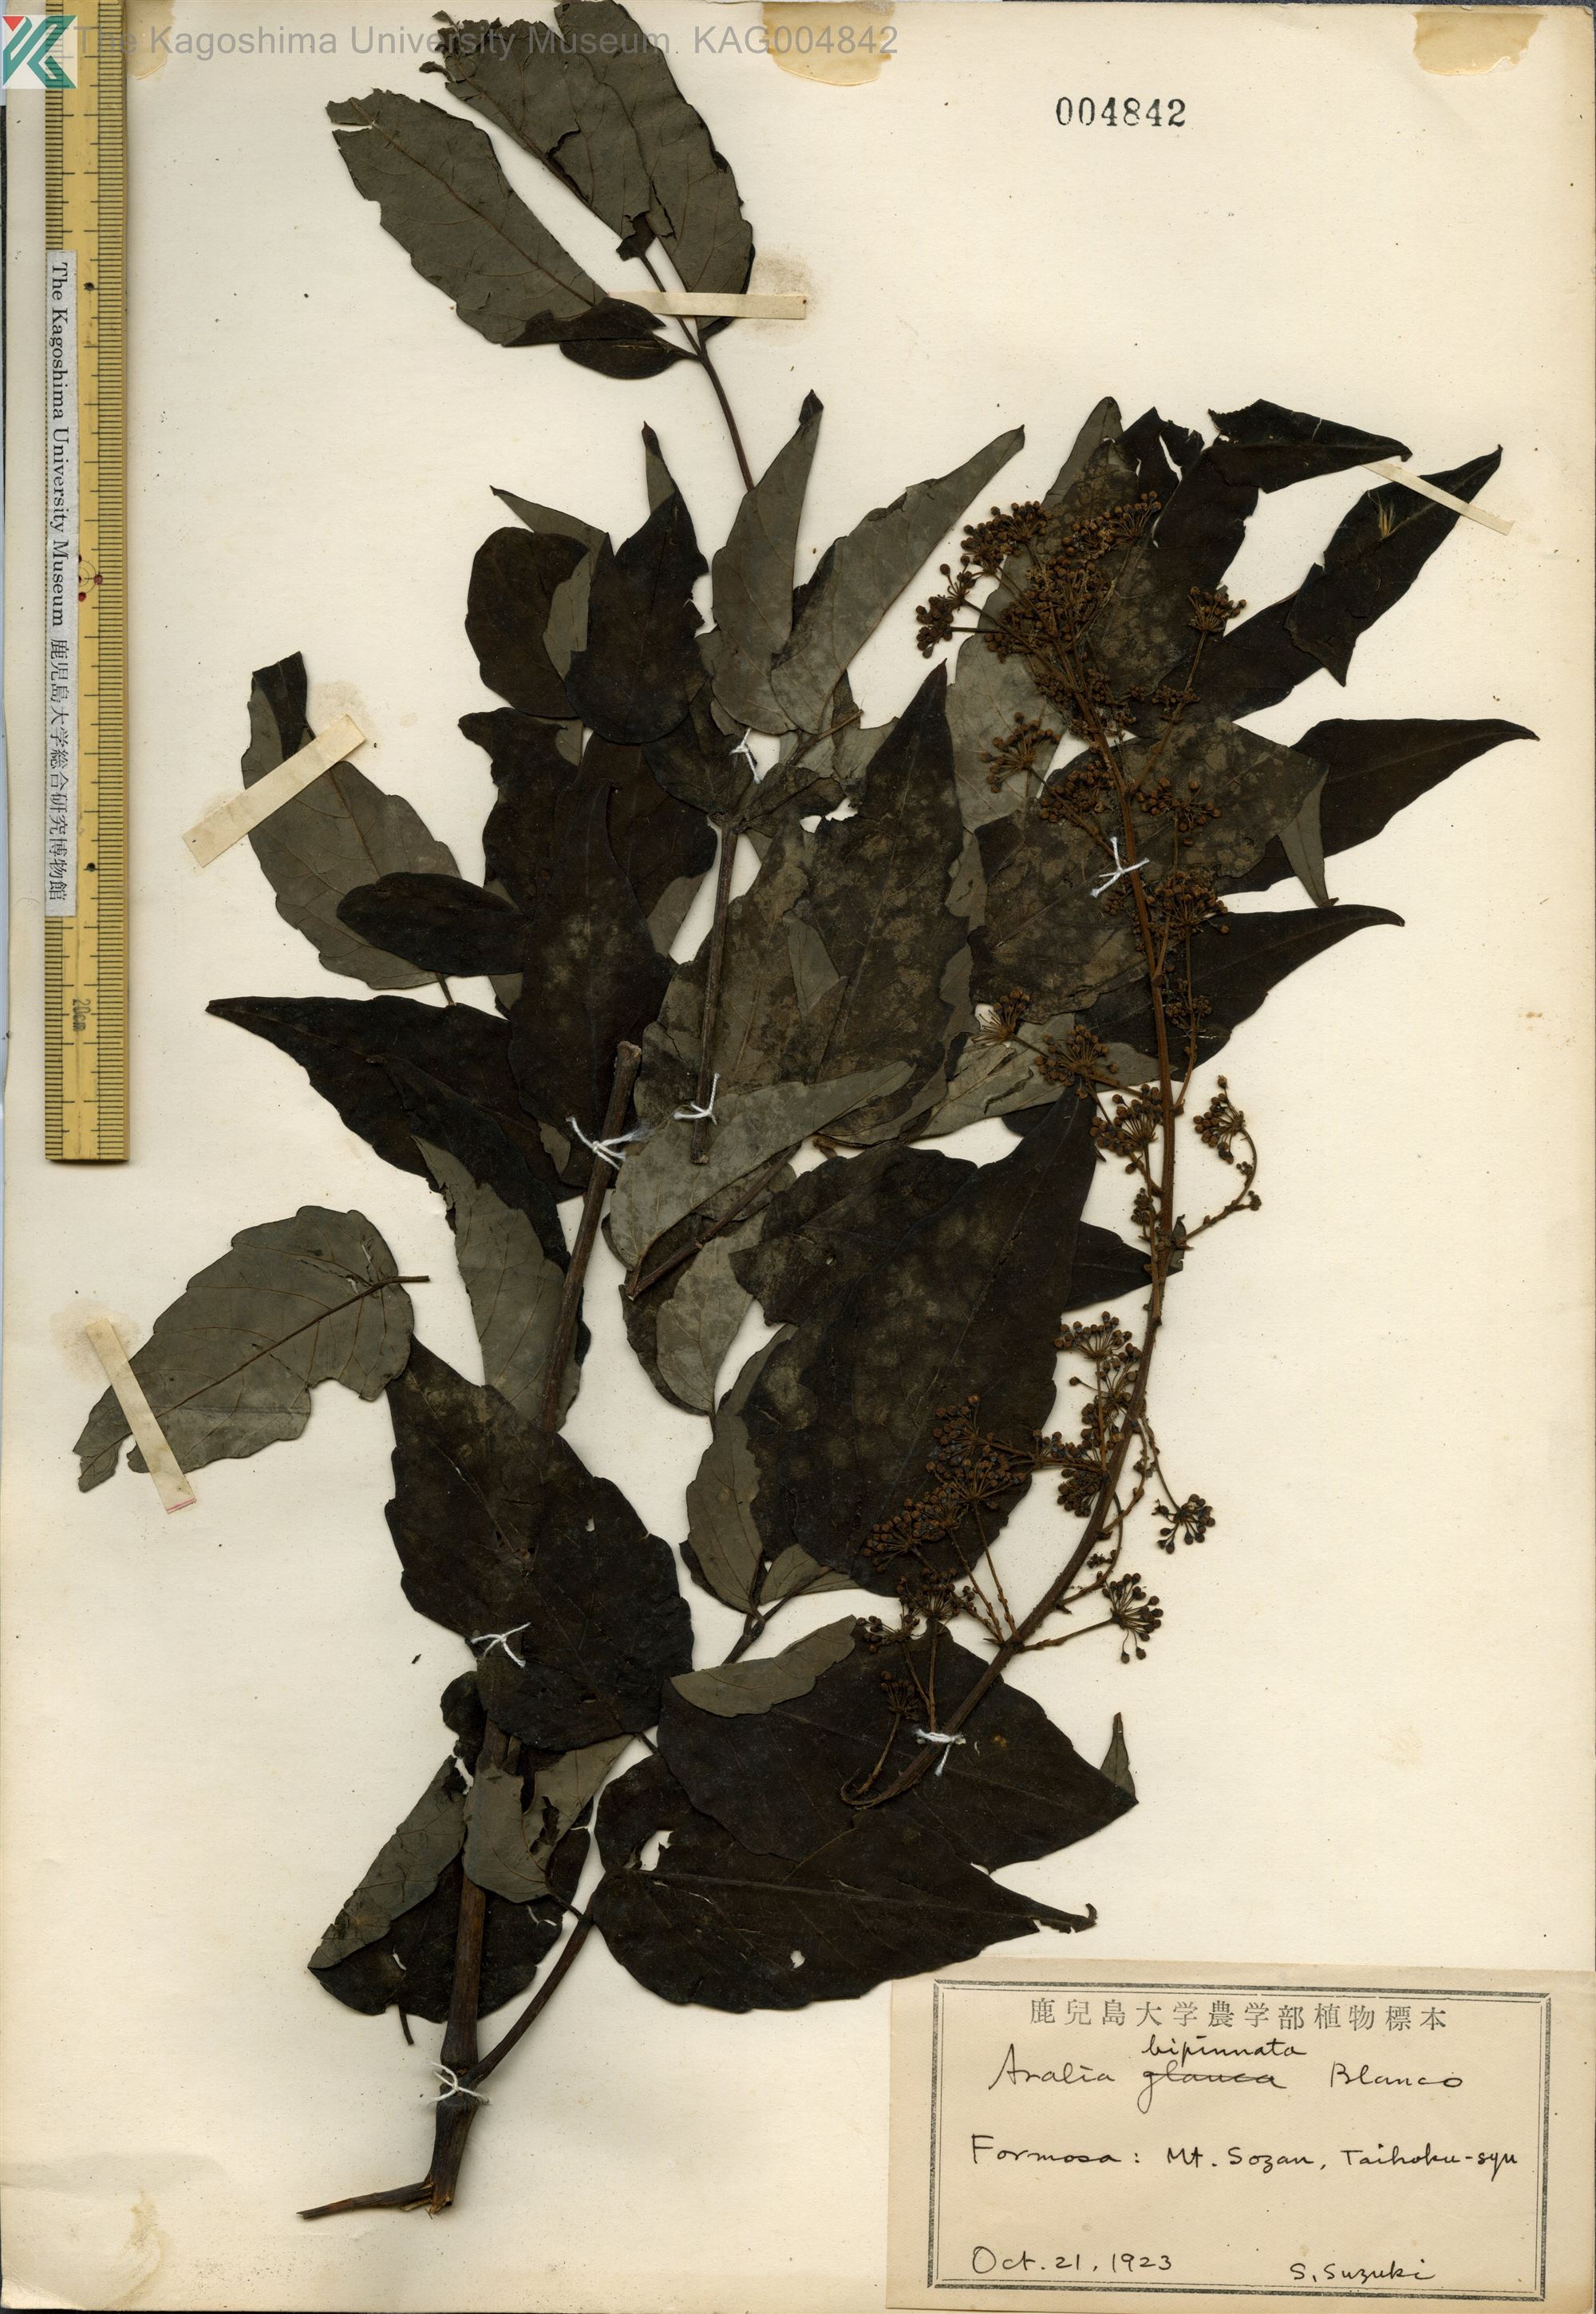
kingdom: Plantae
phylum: Tracheophyta
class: Magnoliopsida
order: Apiales
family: Araliaceae
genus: Aralia
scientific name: Aralia bipinnata
